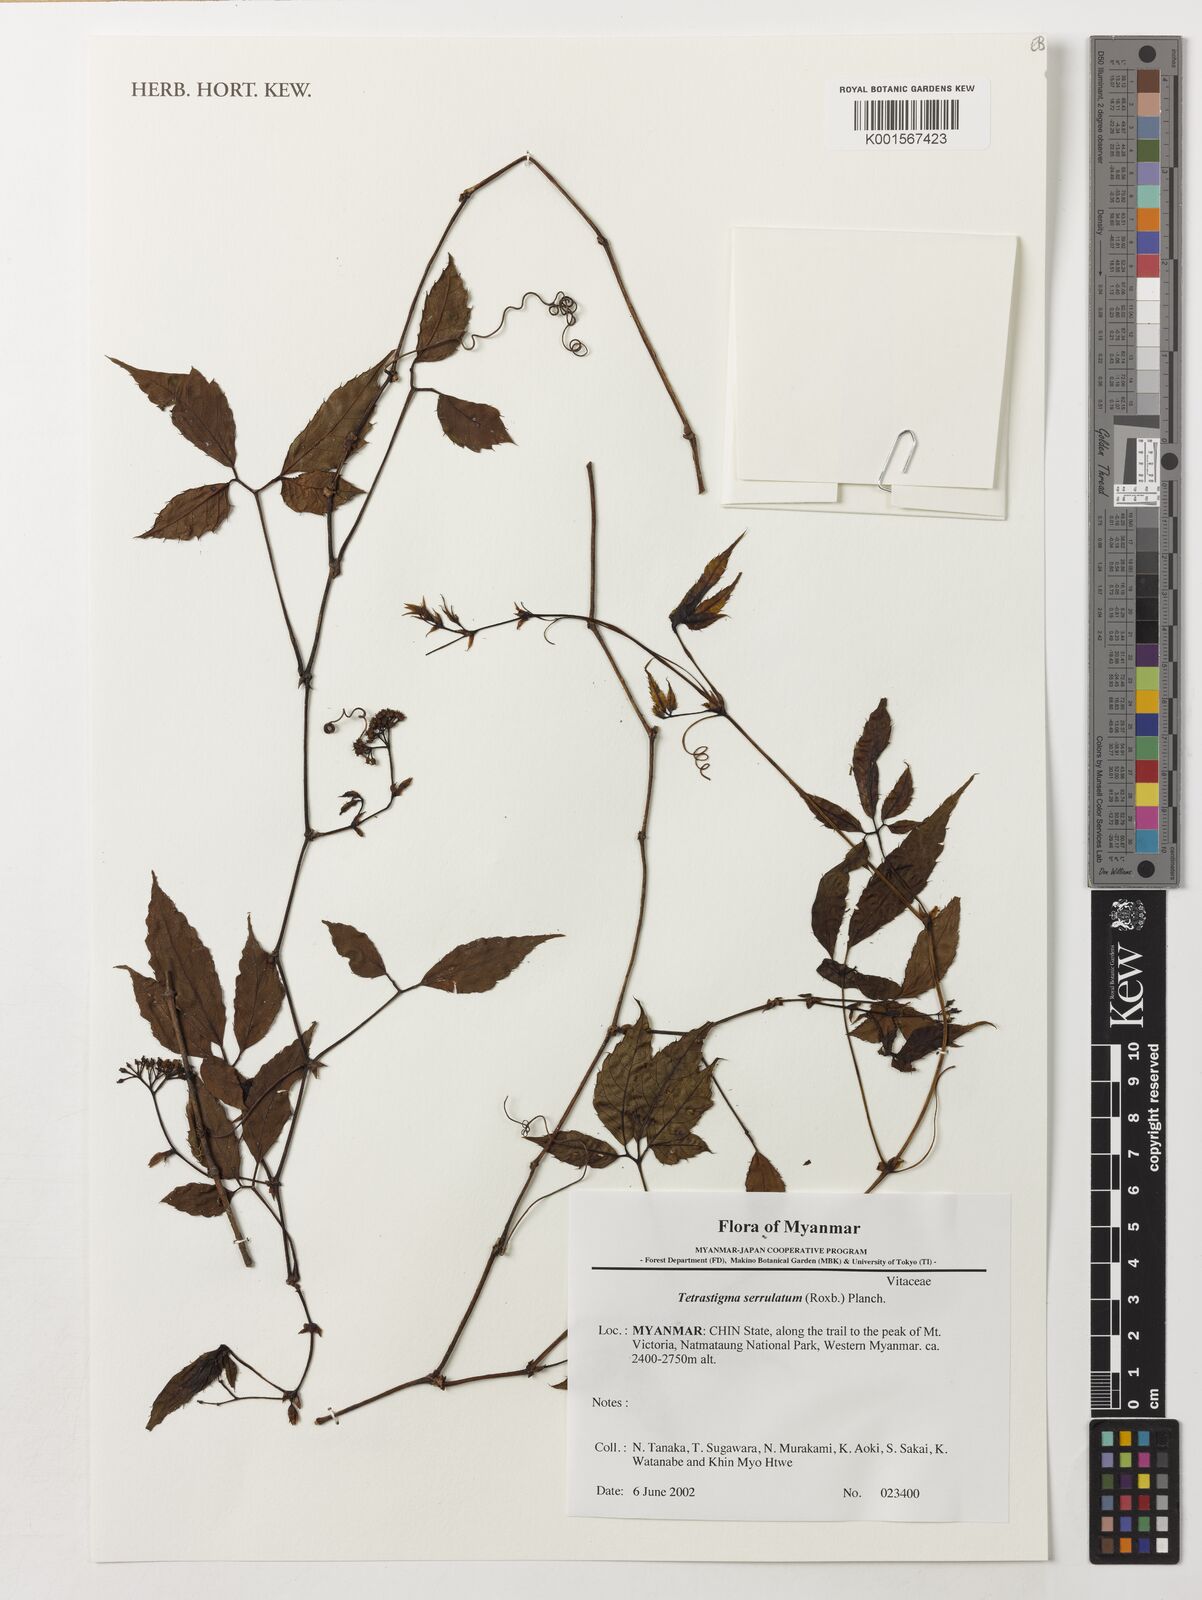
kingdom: Plantae
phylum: Tracheophyta
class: Magnoliopsida
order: Vitales
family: Vitaceae
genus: Tetrastigma
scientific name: Tetrastigma serrulatum
